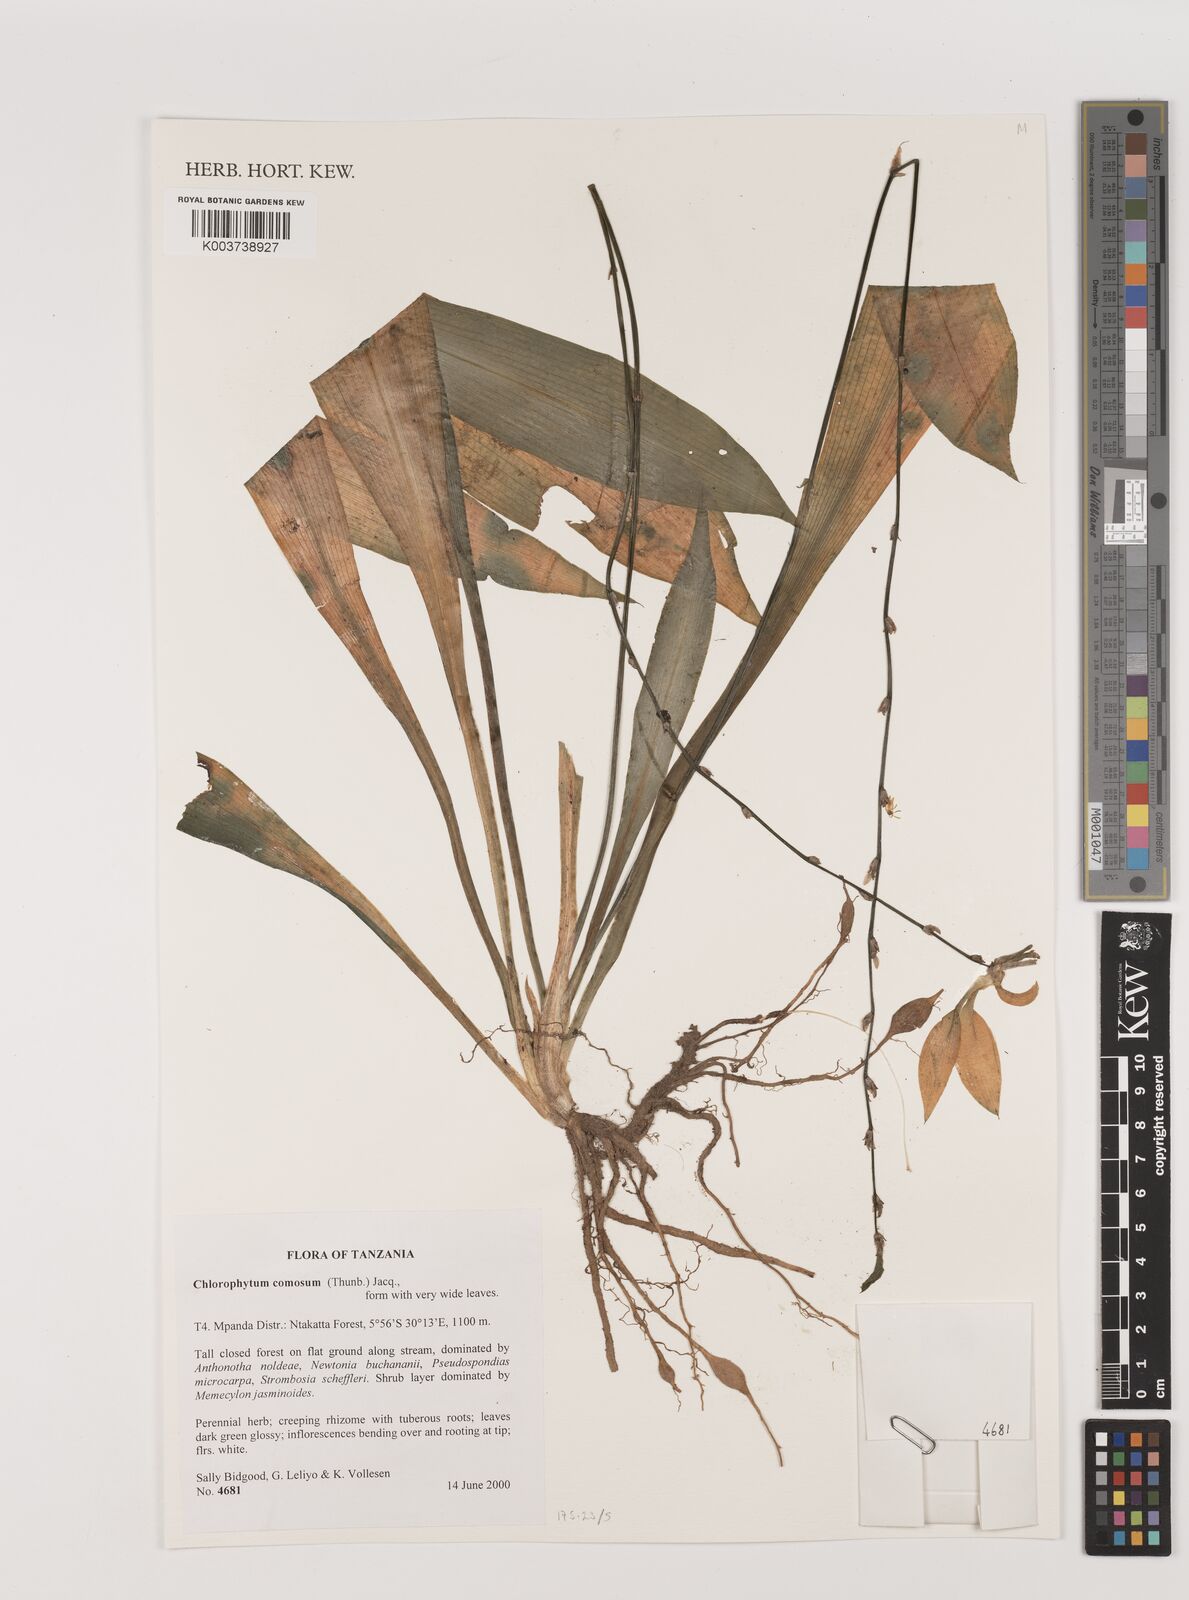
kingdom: Plantae
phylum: Tracheophyta
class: Liliopsida
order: Asparagales
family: Asparagaceae
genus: Chlorophytum
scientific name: Chlorophytum comosum
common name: Spider plant
